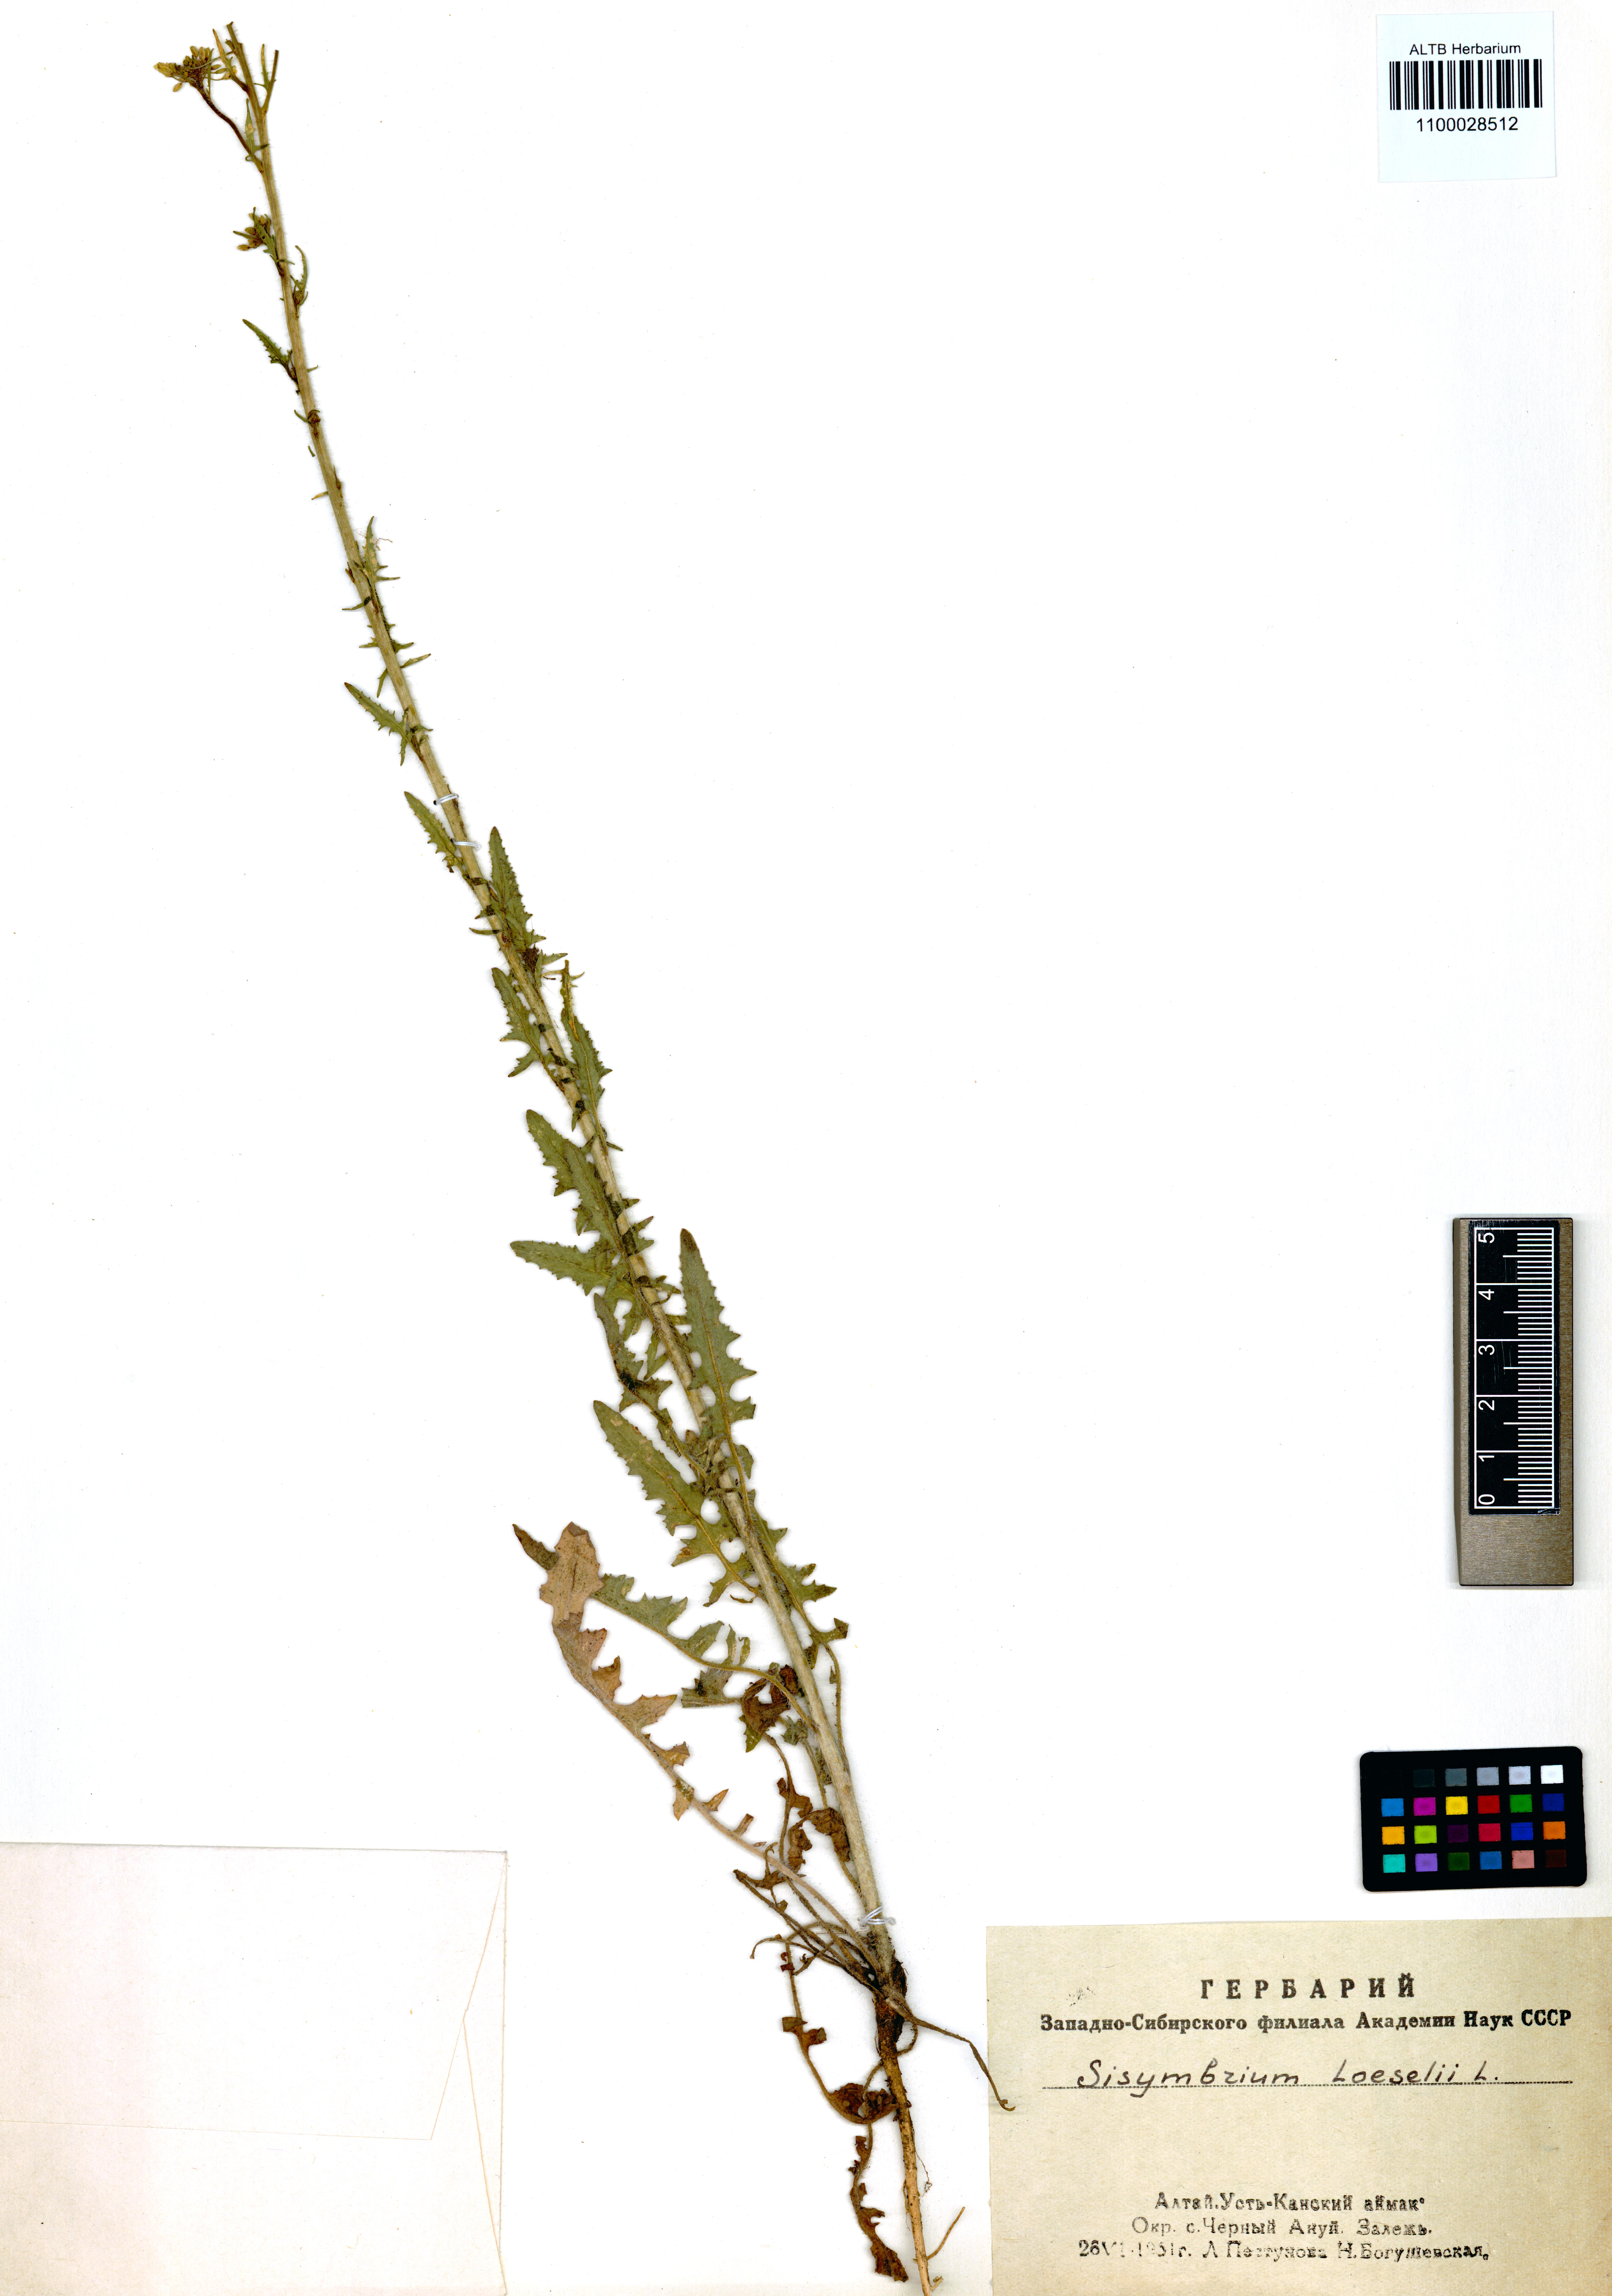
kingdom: Plantae
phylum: Tracheophyta
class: Magnoliopsida
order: Brassicales
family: Brassicaceae
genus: Sisymbrium
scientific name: Sisymbrium loeselii
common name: False london-rocket
